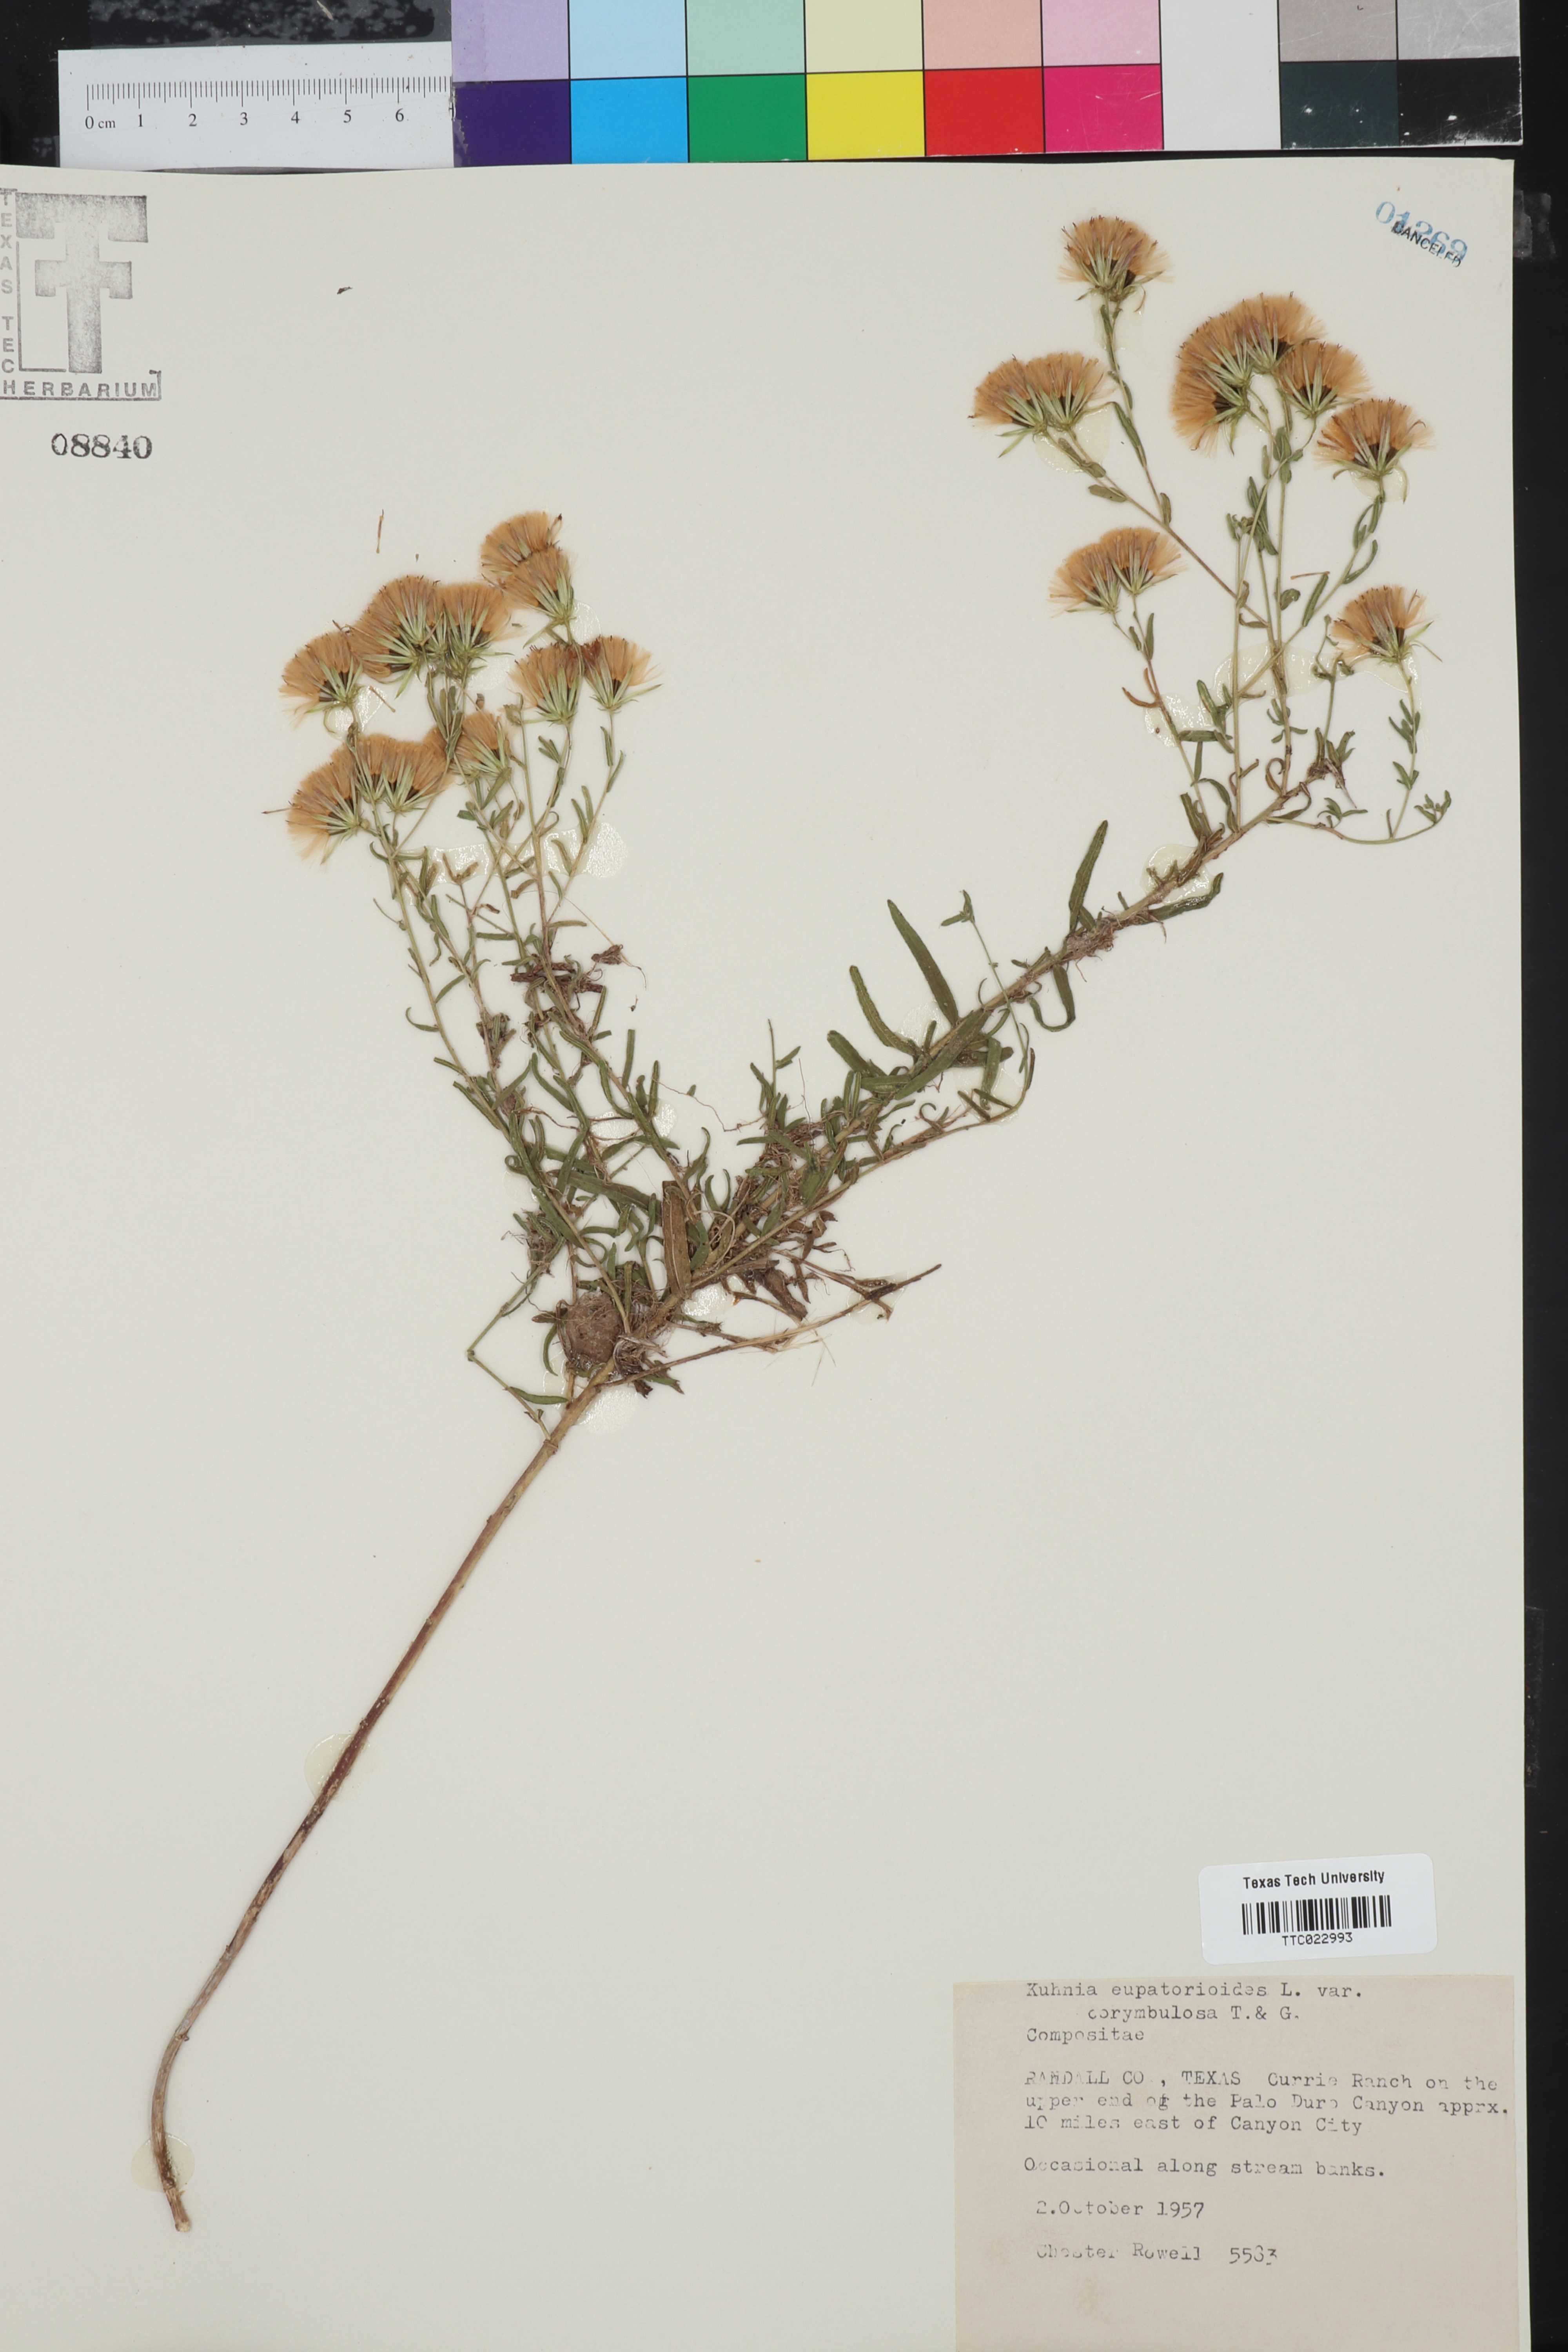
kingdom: Plantae
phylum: Tracheophyta
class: Magnoliopsida
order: Asterales
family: Asteraceae
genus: Brickellia
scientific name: Brickellia suaveolens
